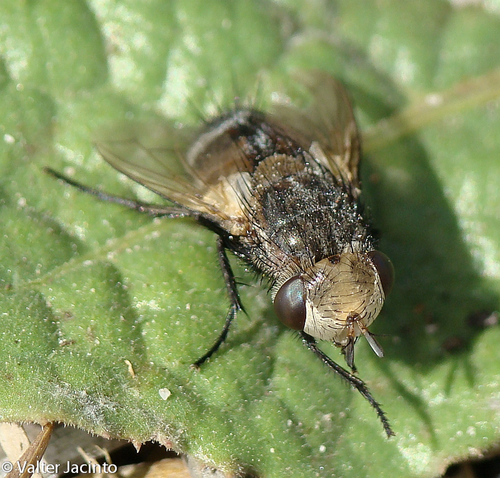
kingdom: Animalia
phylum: Arthropoda
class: Insecta
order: Diptera
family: Tachinidae
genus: Gonia
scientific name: Gonia ornata
